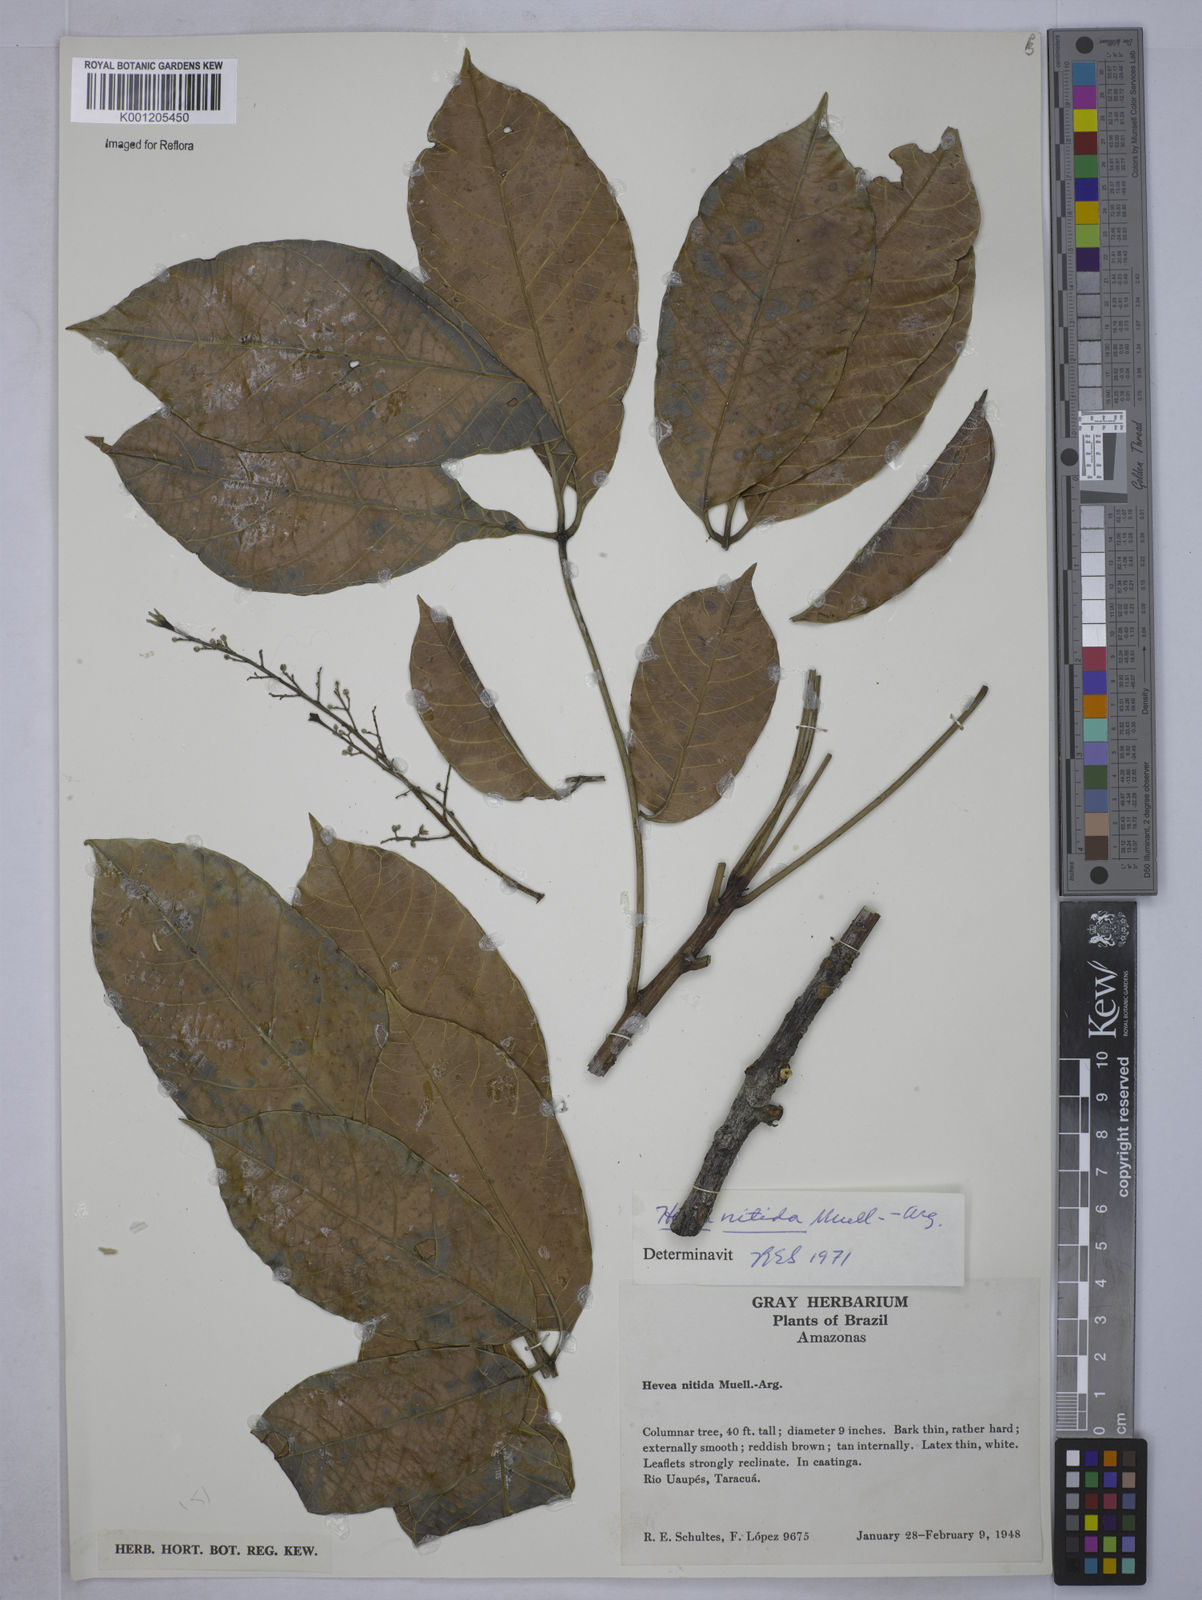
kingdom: Plantae
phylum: Tracheophyta
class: Magnoliopsida
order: Malpighiales
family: Euphorbiaceae
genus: Hevea
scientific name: Hevea
